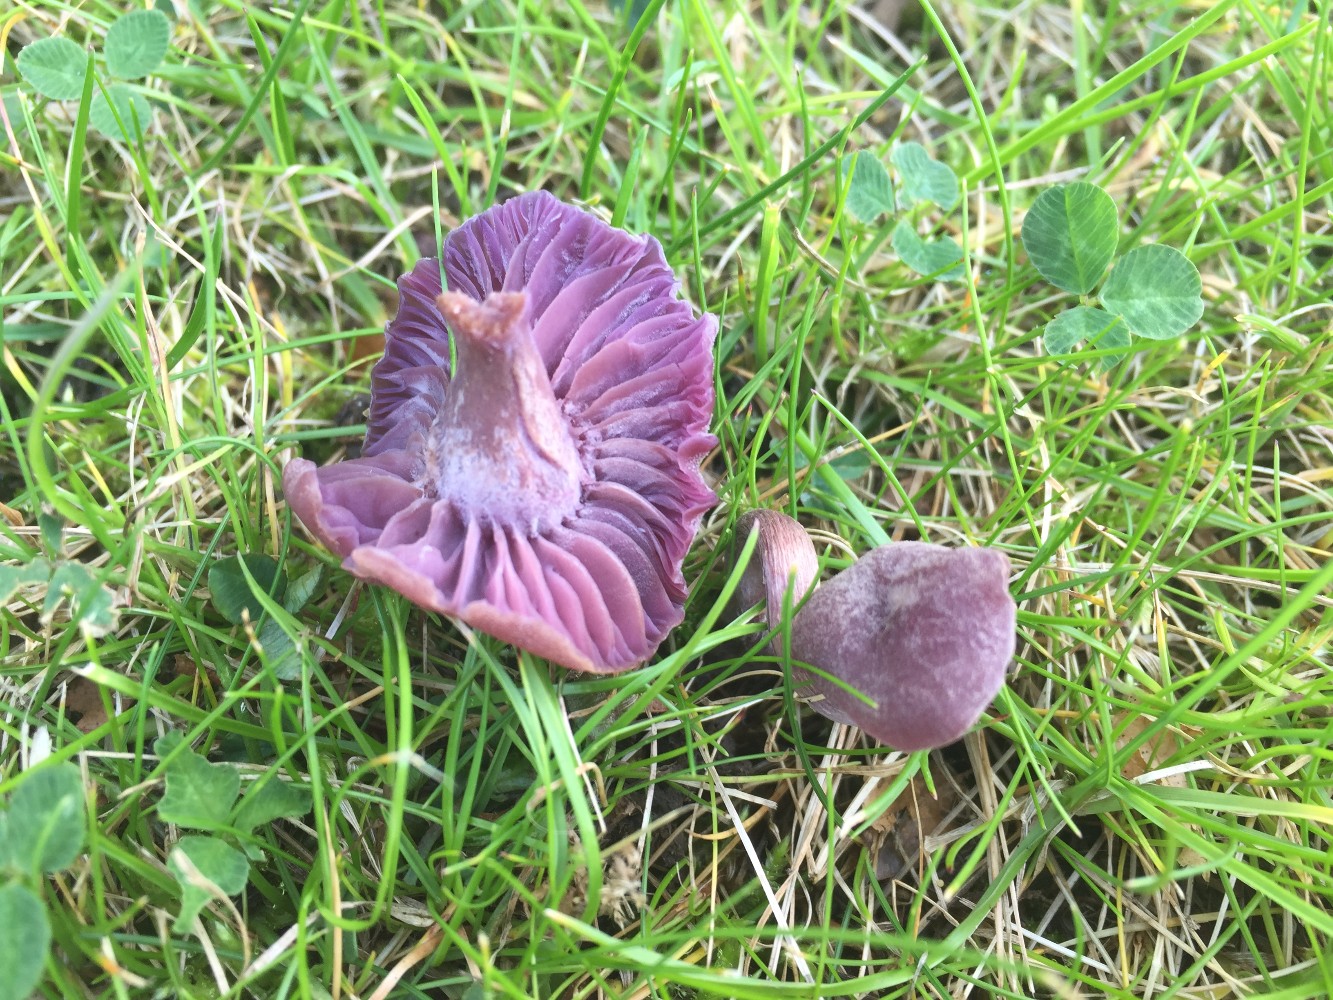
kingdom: Fungi
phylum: Basidiomycota
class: Agaricomycetes
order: Agaricales
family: Hydnangiaceae
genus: Laccaria
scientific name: Laccaria amethystina
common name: violet ametysthat
